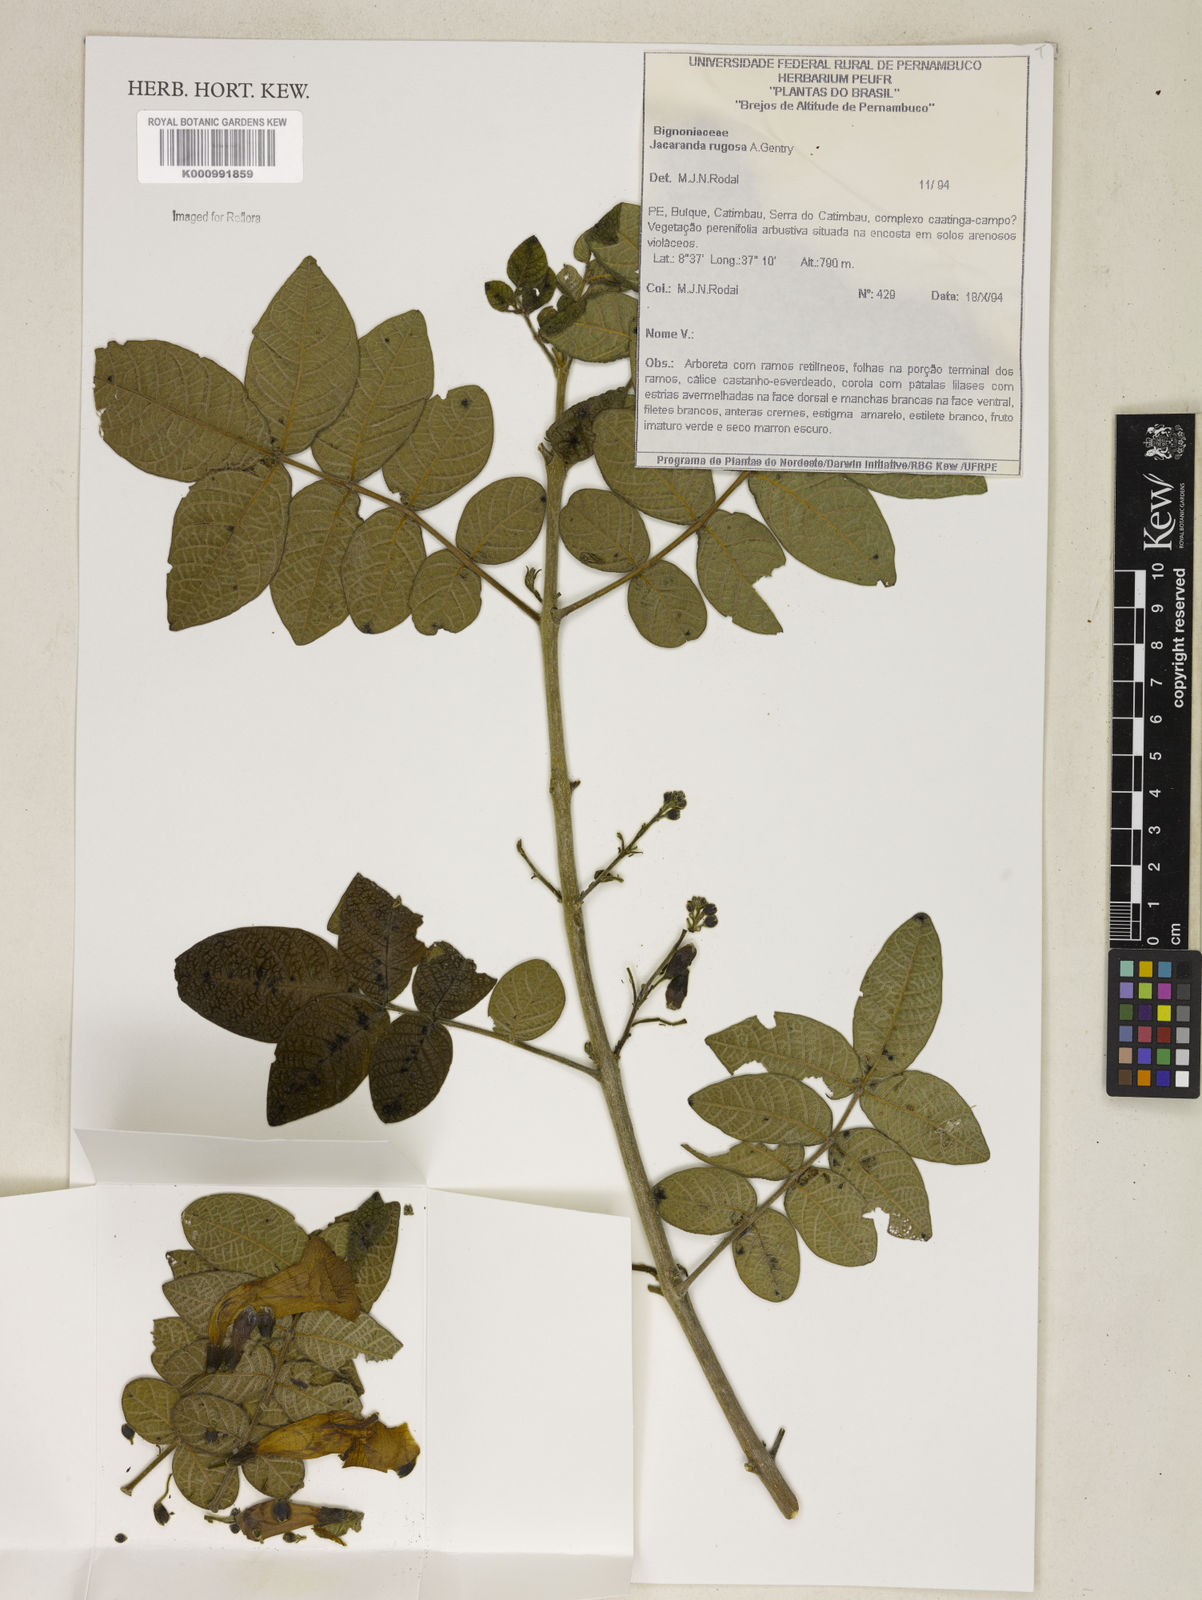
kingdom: Plantae
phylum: Tracheophyta
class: Magnoliopsida
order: Lamiales
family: Bignoniaceae
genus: Jacaranda
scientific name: Jacaranda rugosa
